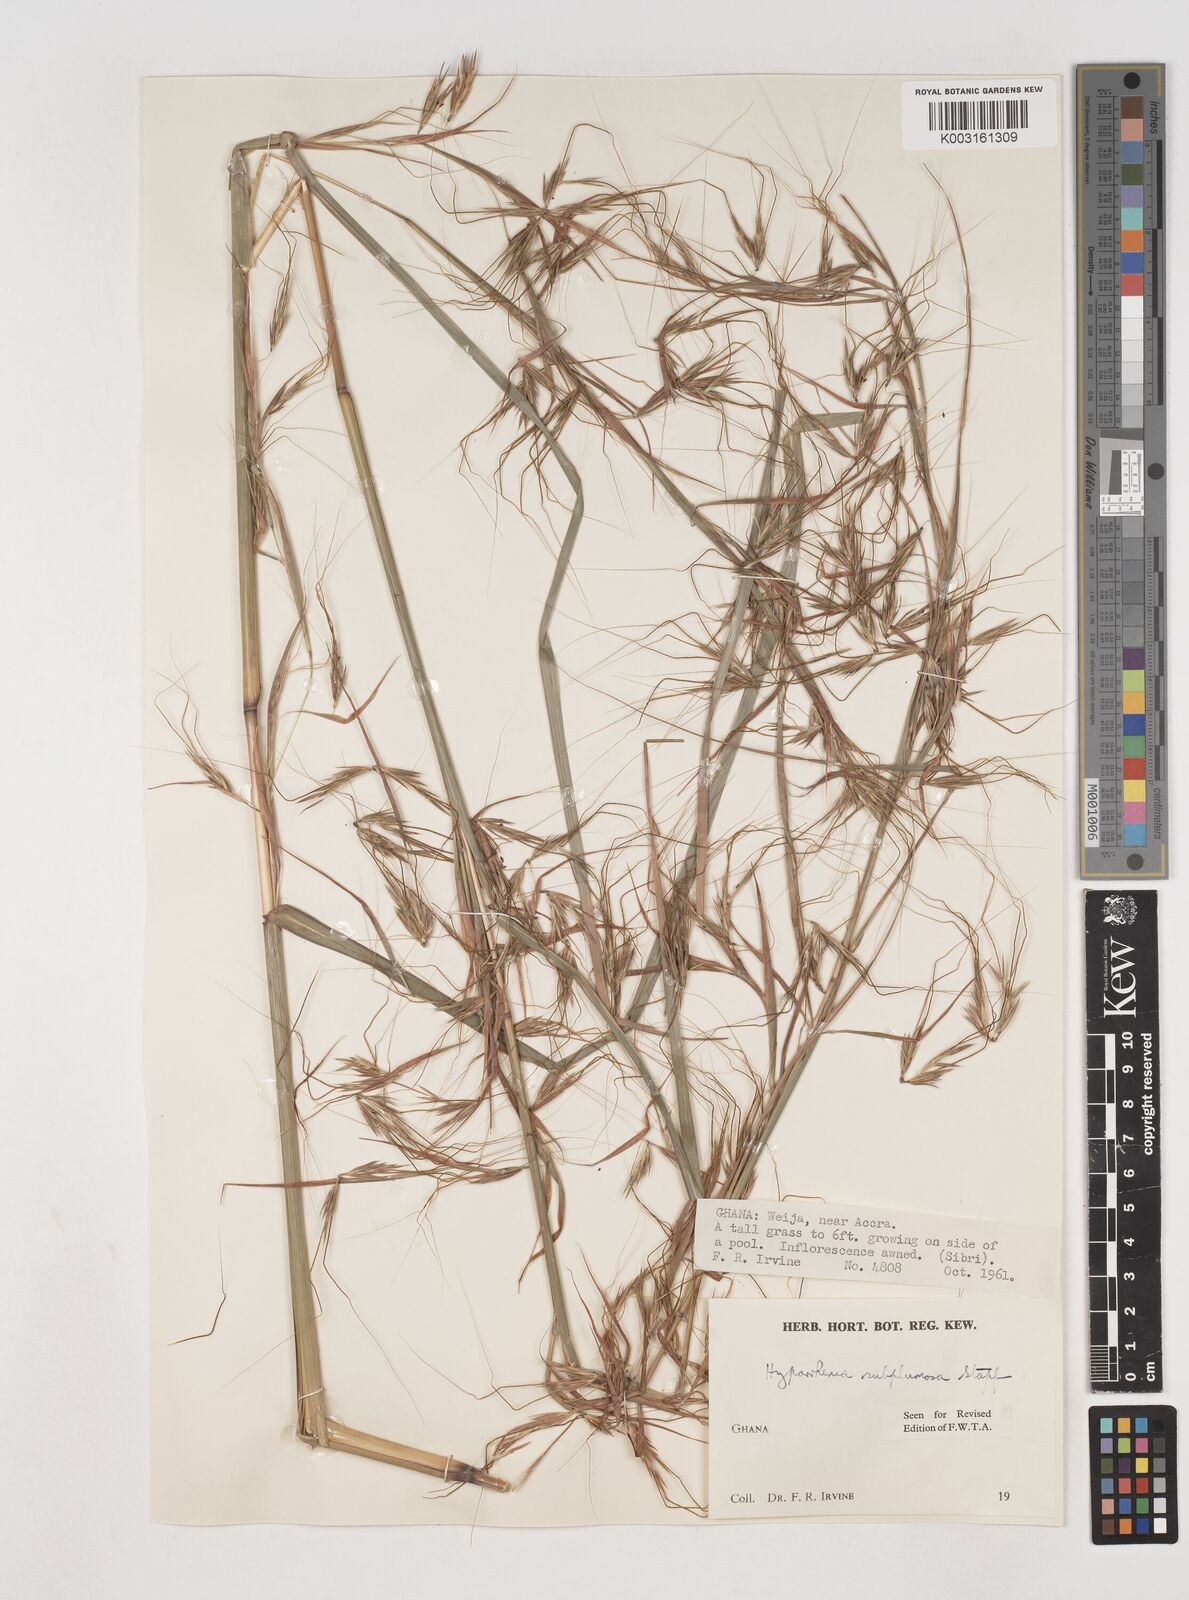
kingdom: Plantae
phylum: Tracheophyta
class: Liliopsida
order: Poales
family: Poaceae
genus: Hyparrhenia
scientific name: Hyparrhenia
